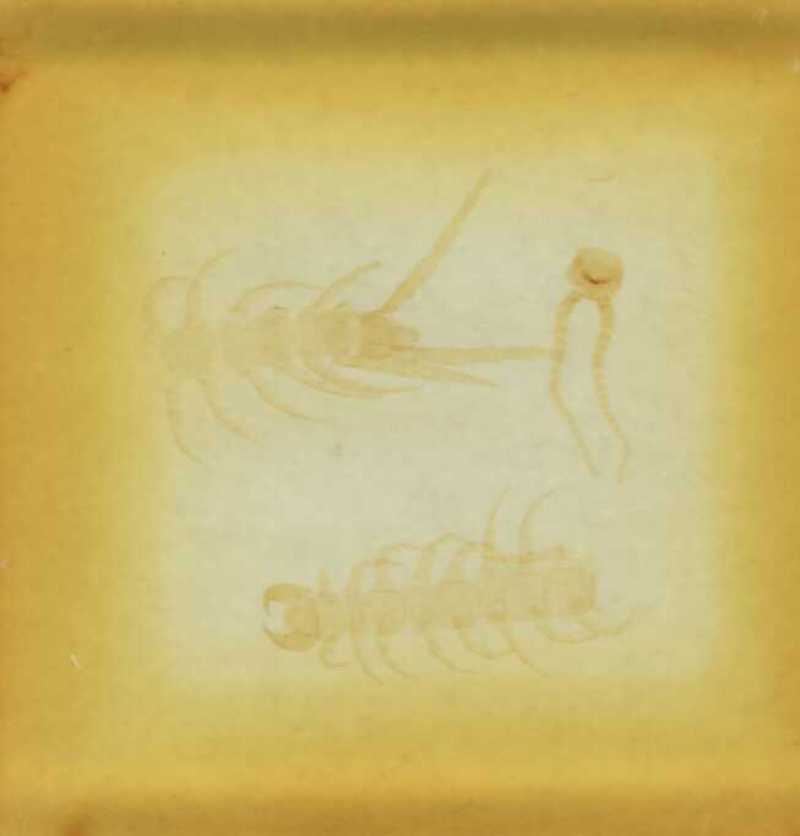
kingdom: Animalia
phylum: Arthropoda
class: Chilopoda
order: Lithobiomorpha
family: Lithobiidae
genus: Lithobius
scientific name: Lithobius
